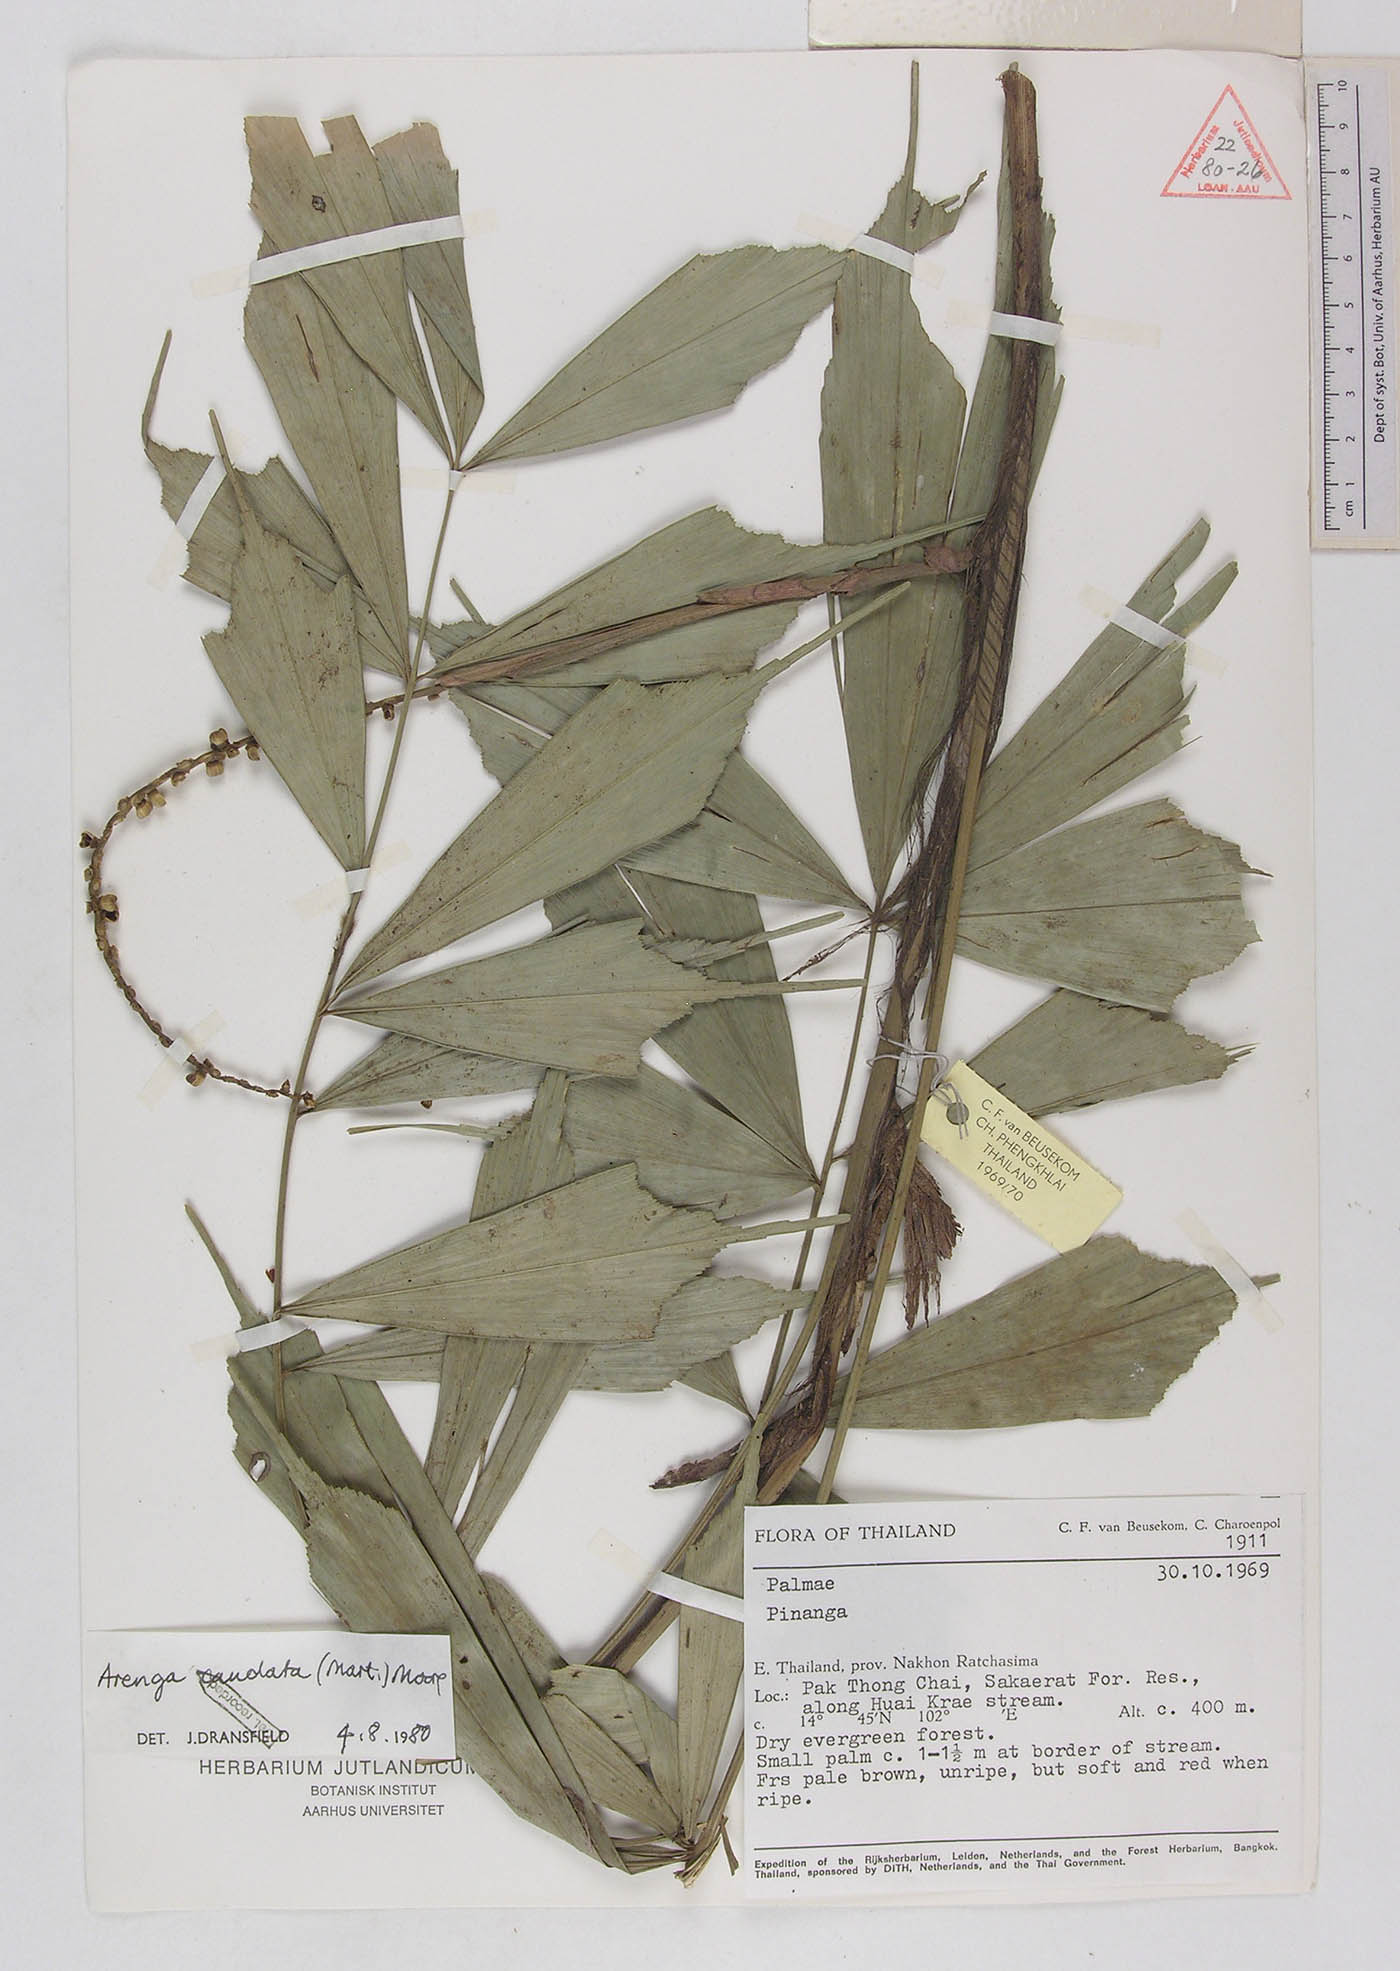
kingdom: Plantae
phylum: Tracheophyta
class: Liliopsida
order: Arecales
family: Arecaceae
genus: Arenga
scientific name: Arenga caudata
